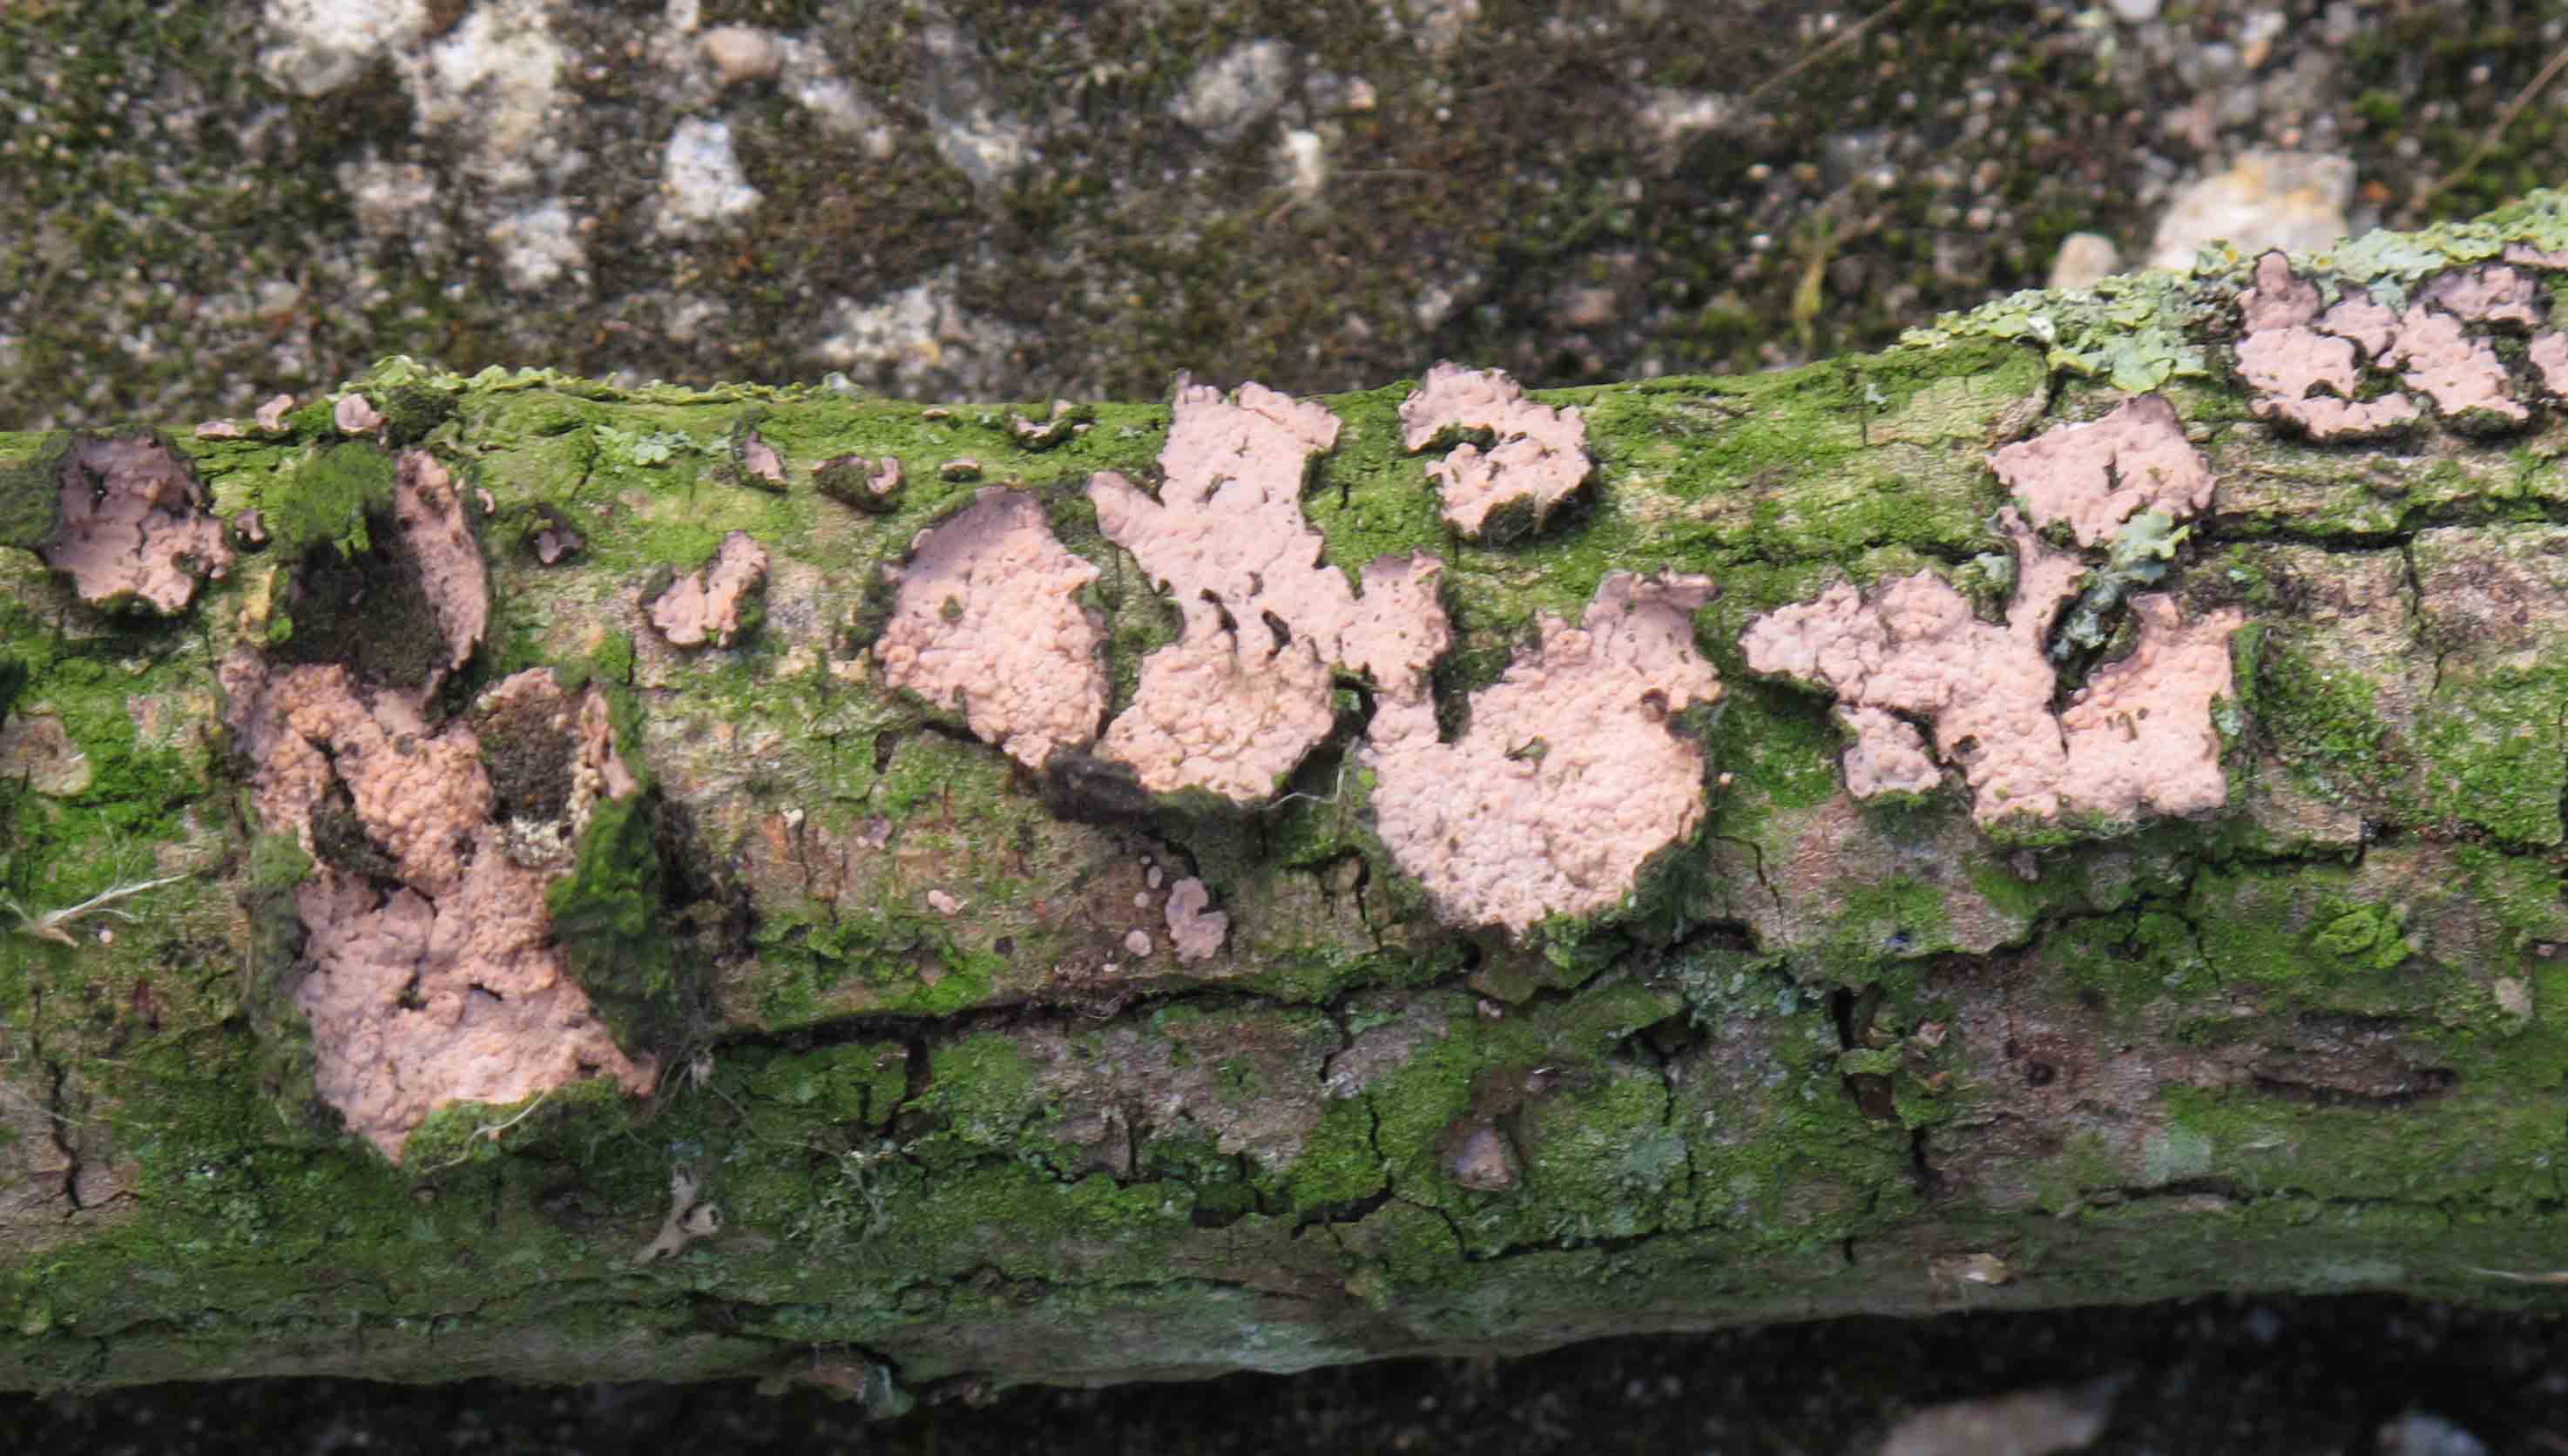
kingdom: Fungi
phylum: Basidiomycota
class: Agaricomycetes
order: Russulales
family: Peniophoraceae
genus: Peniophora
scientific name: Peniophora quercina
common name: ege-voksskind
